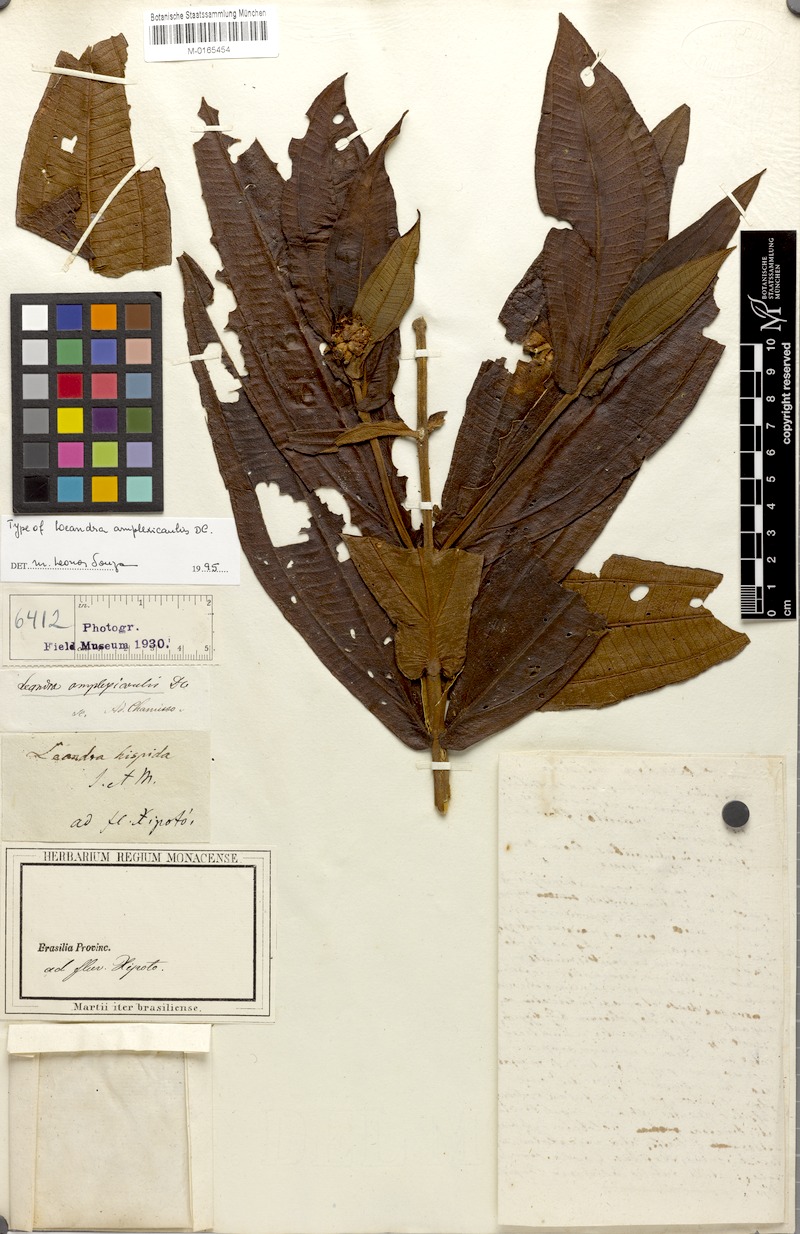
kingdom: Plantae
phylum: Tracheophyta
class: Magnoliopsida
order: Myrtales
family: Melastomataceae
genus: Miconia
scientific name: Miconia pectinata
